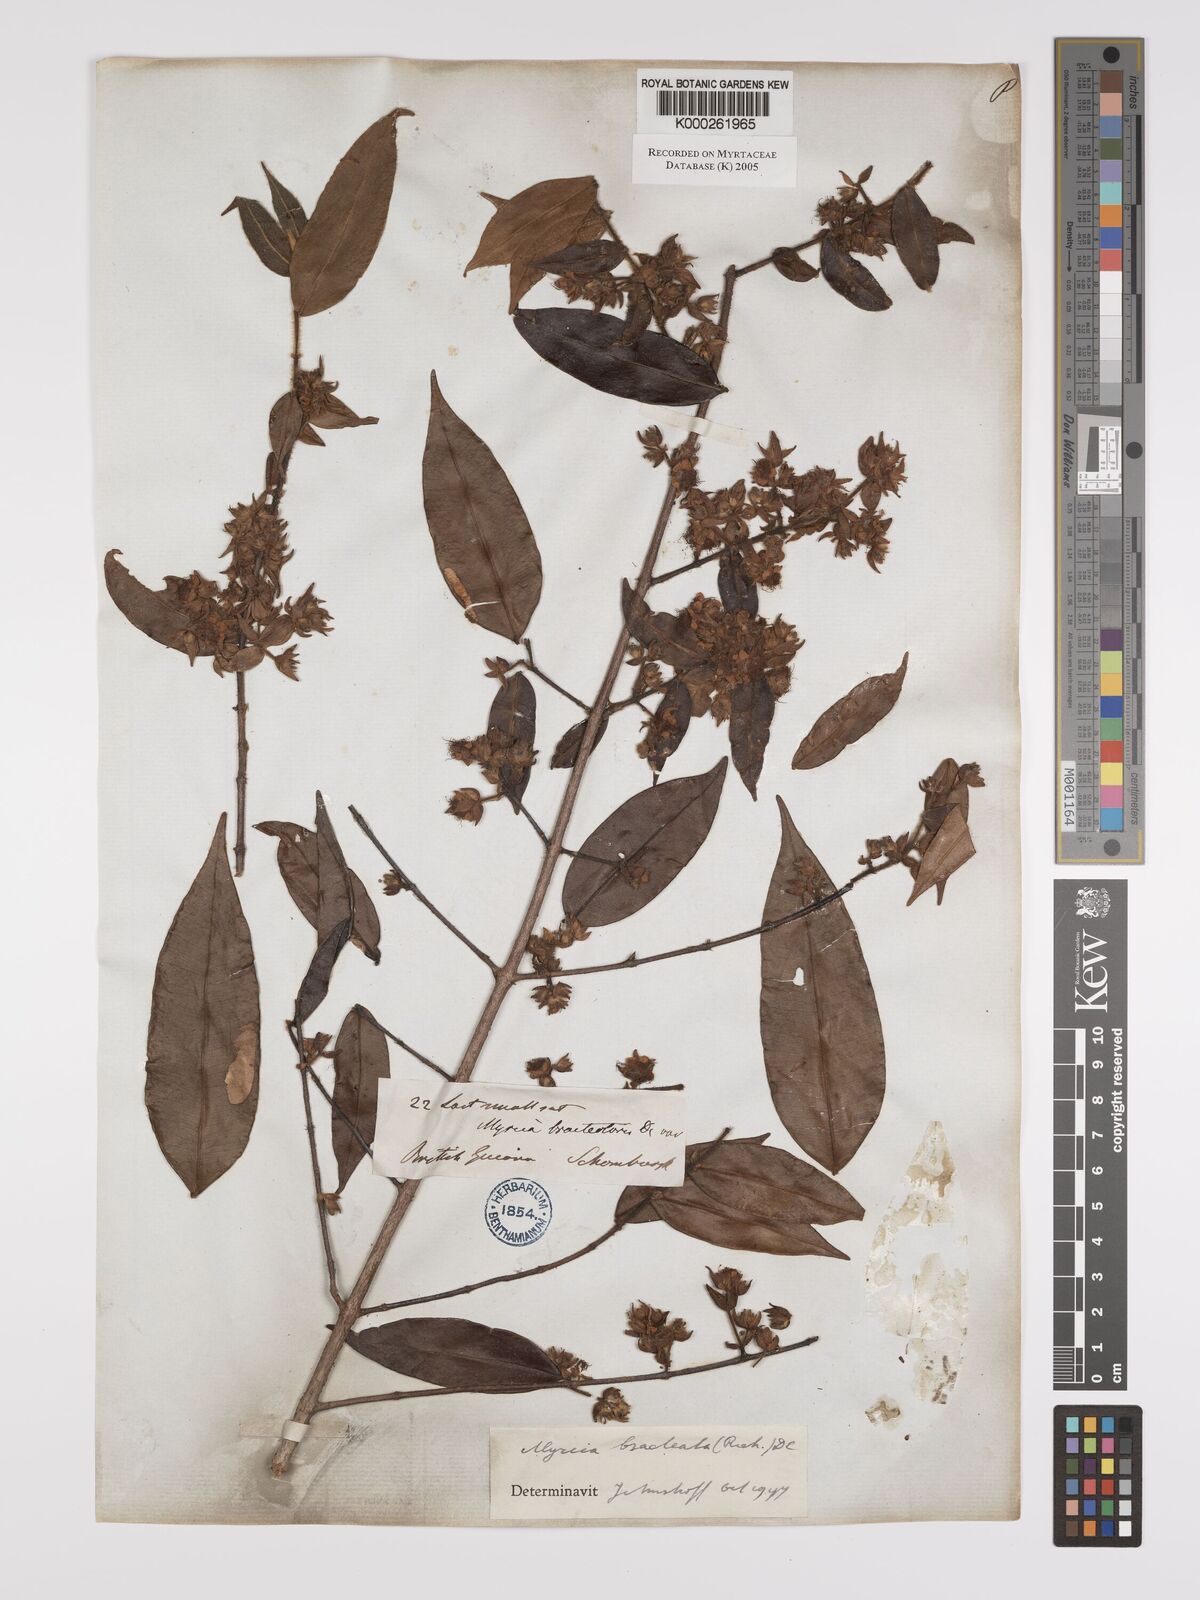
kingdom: Plantae
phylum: Tracheophyta
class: Magnoliopsida
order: Myrtales
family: Myrtaceae
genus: Myrcia
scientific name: Myrcia bracteata
